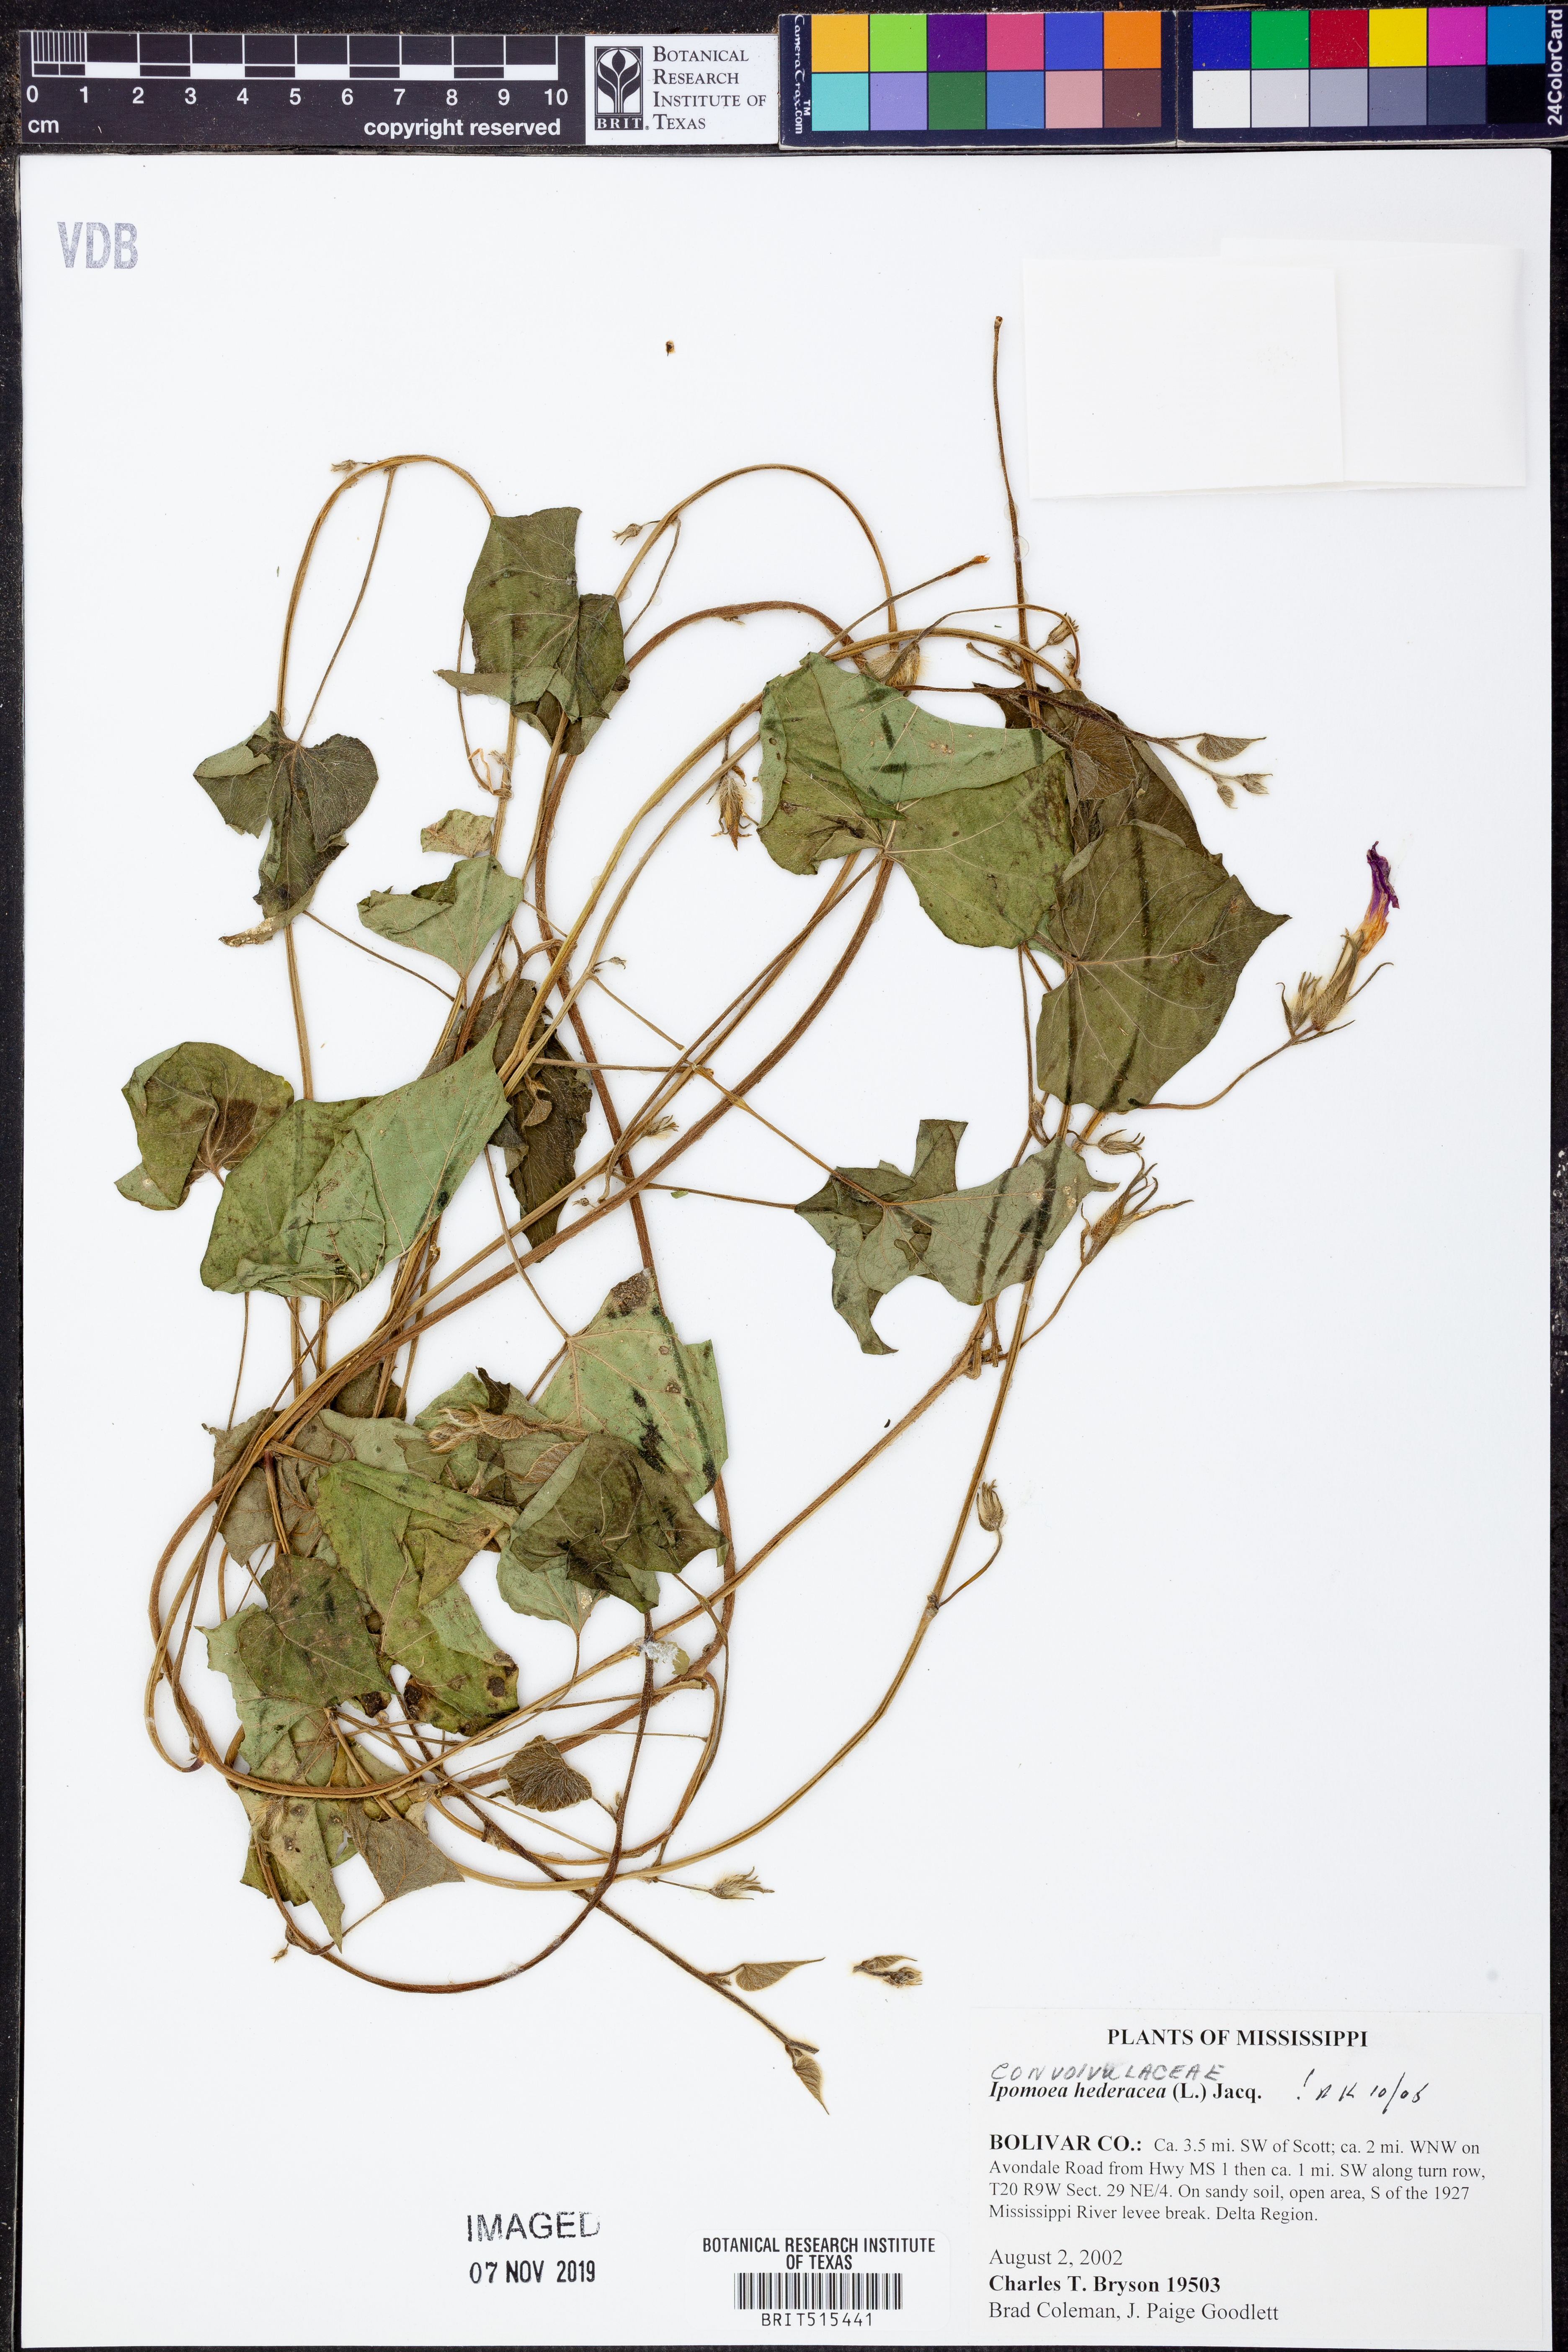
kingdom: Plantae
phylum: Tracheophyta
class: Magnoliopsida
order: Solanales
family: Convolvulaceae
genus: Ipomoea
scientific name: Ipomoea hederacea
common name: Ivy-leaved morning-glory
